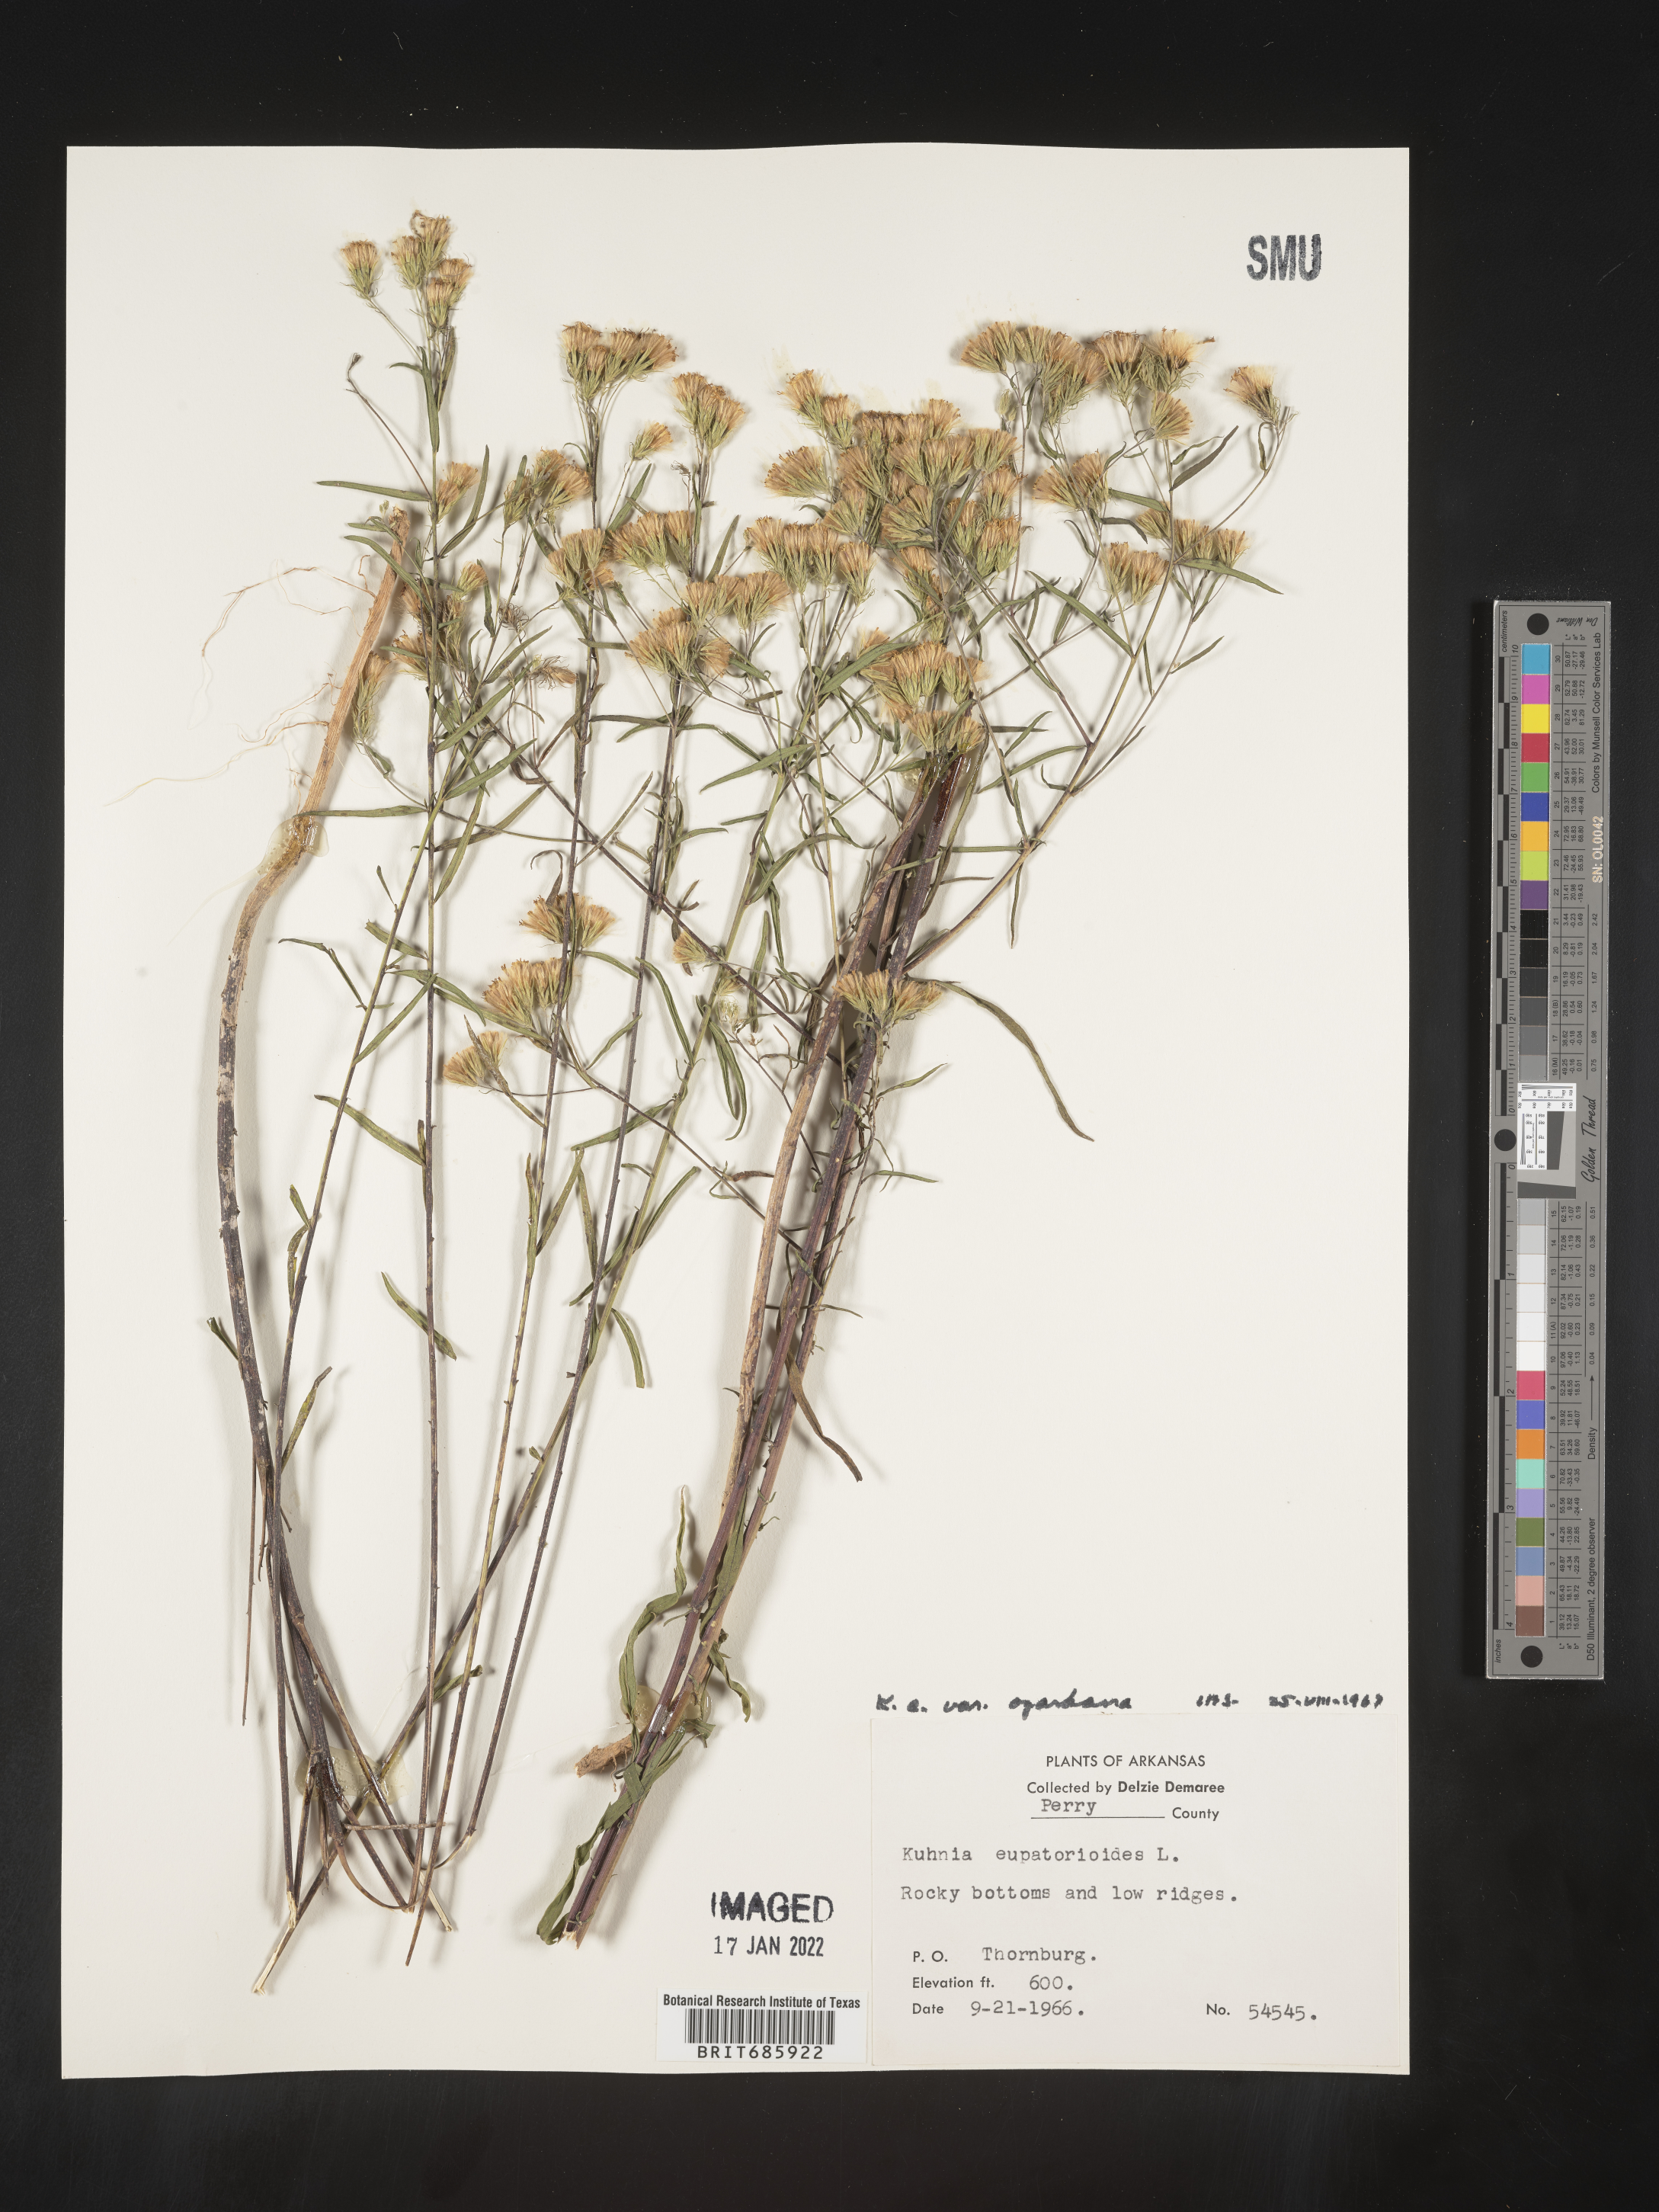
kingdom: Plantae
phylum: Tracheophyta
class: Magnoliopsida
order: Asterales
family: Asteraceae
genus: Brickellia
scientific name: Brickellia ozarkana
